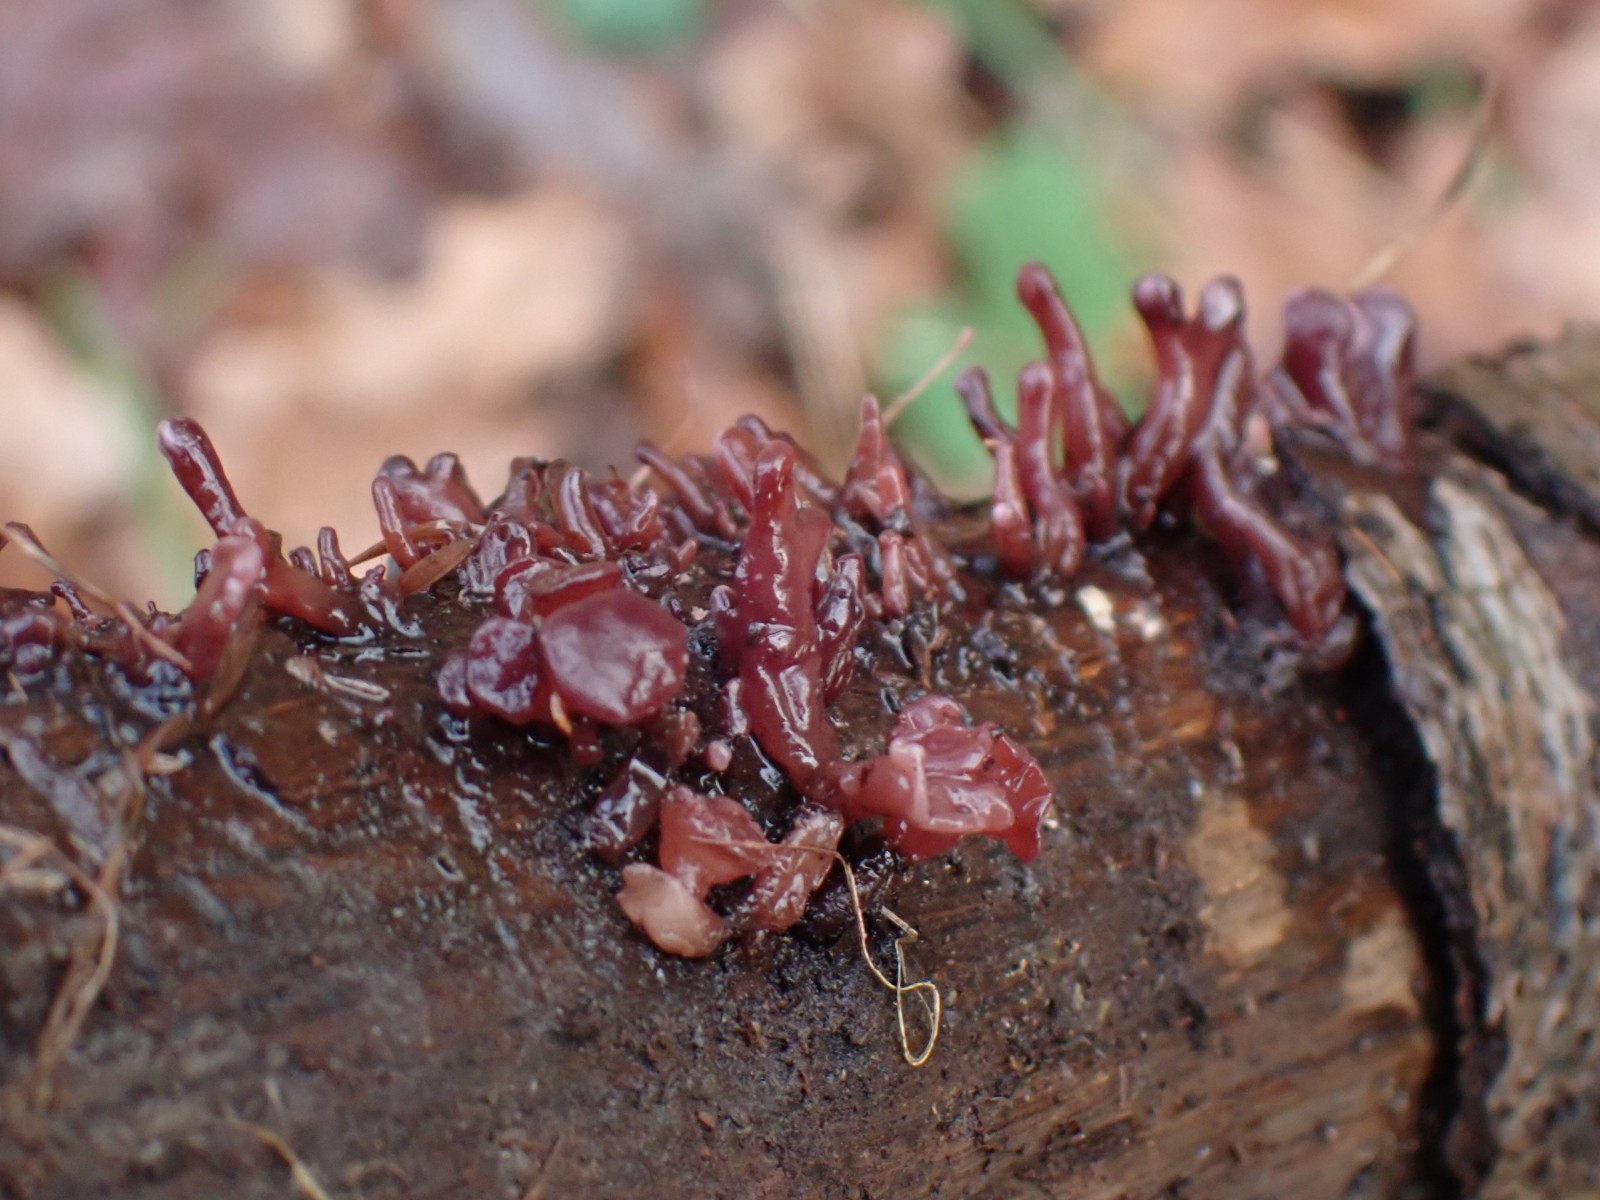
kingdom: Fungi
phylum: Ascomycota
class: Leotiomycetes
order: Helotiales
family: Gelatinodiscaceae
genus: Ascocoryne
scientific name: Ascocoryne albida
